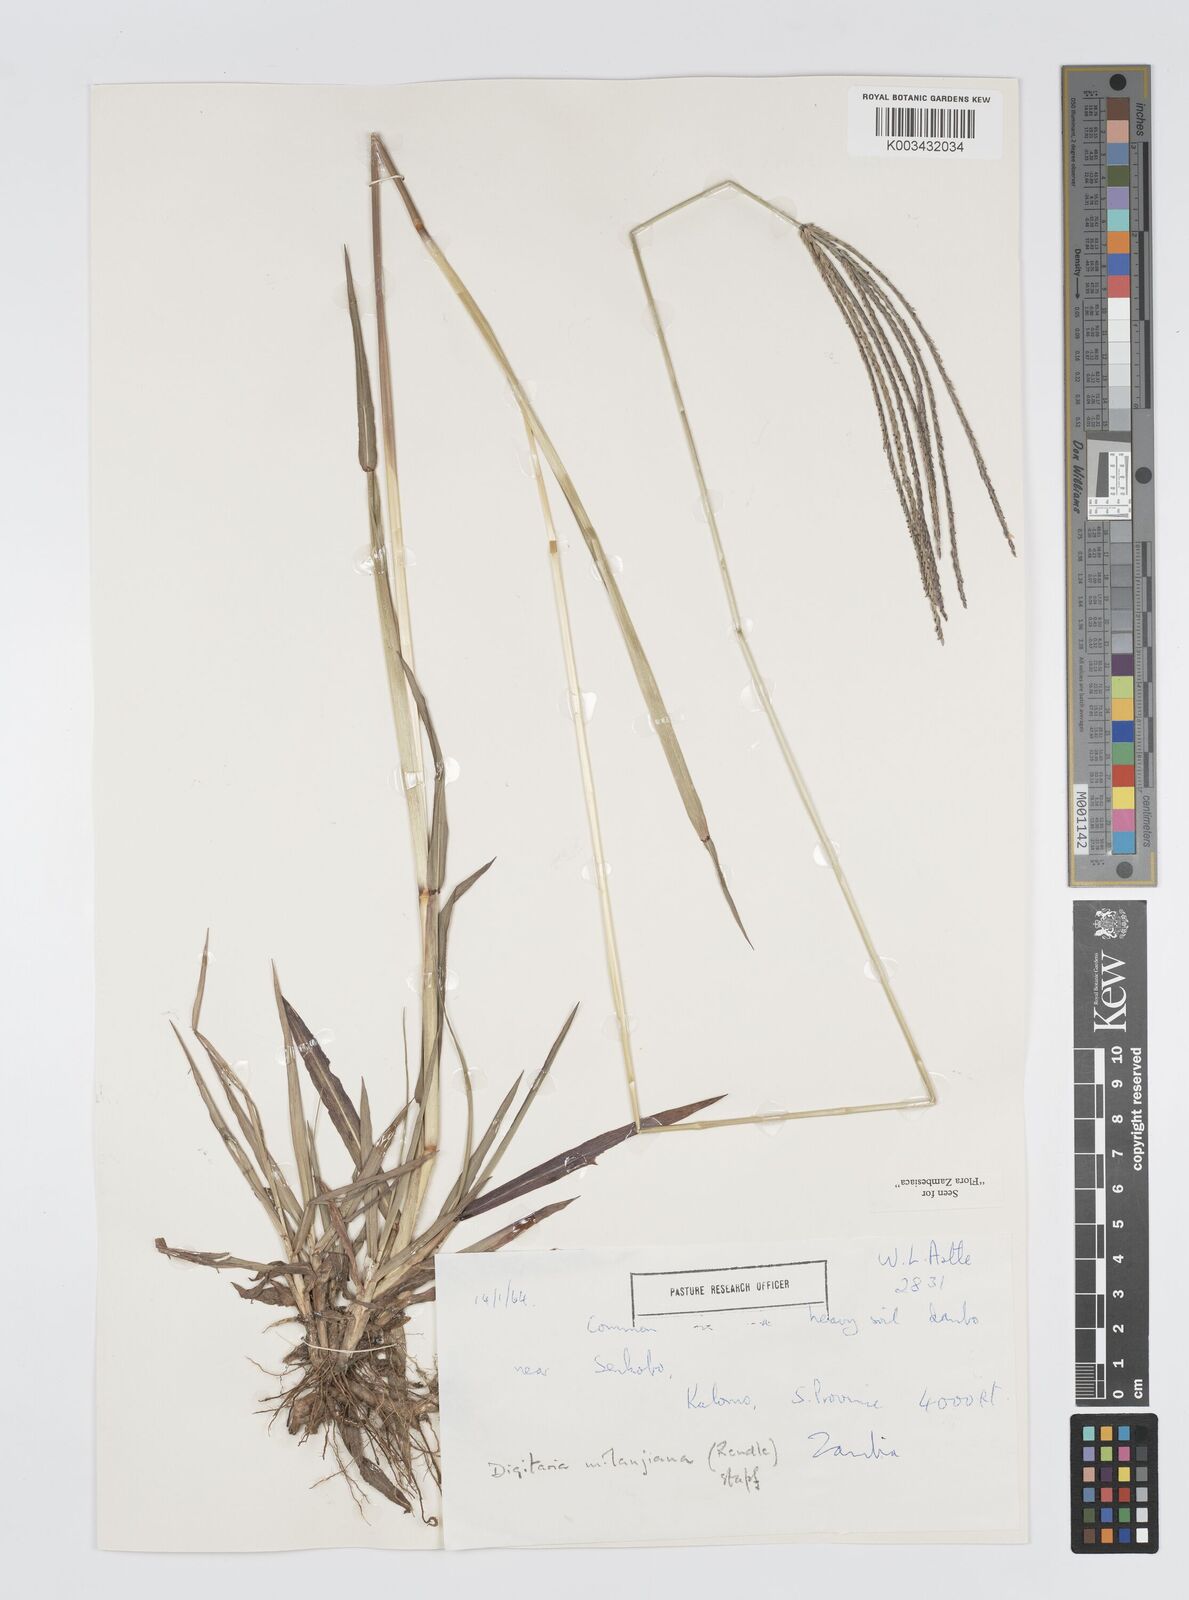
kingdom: Plantae
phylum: Tracheophyta
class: Liliopsida
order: Poales
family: Poaceae
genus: Digitaria
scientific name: Digitaria milanjiana
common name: Madagascar crabgrass
